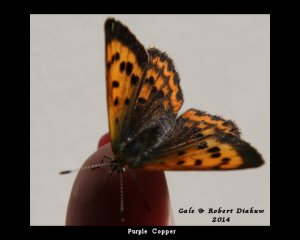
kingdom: Animalia
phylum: Arthropoda
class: Insecta
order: Lepidoptera
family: Sesiidae
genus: Sesia
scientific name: Sesia Lycaena helloides
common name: Purplish Copper
